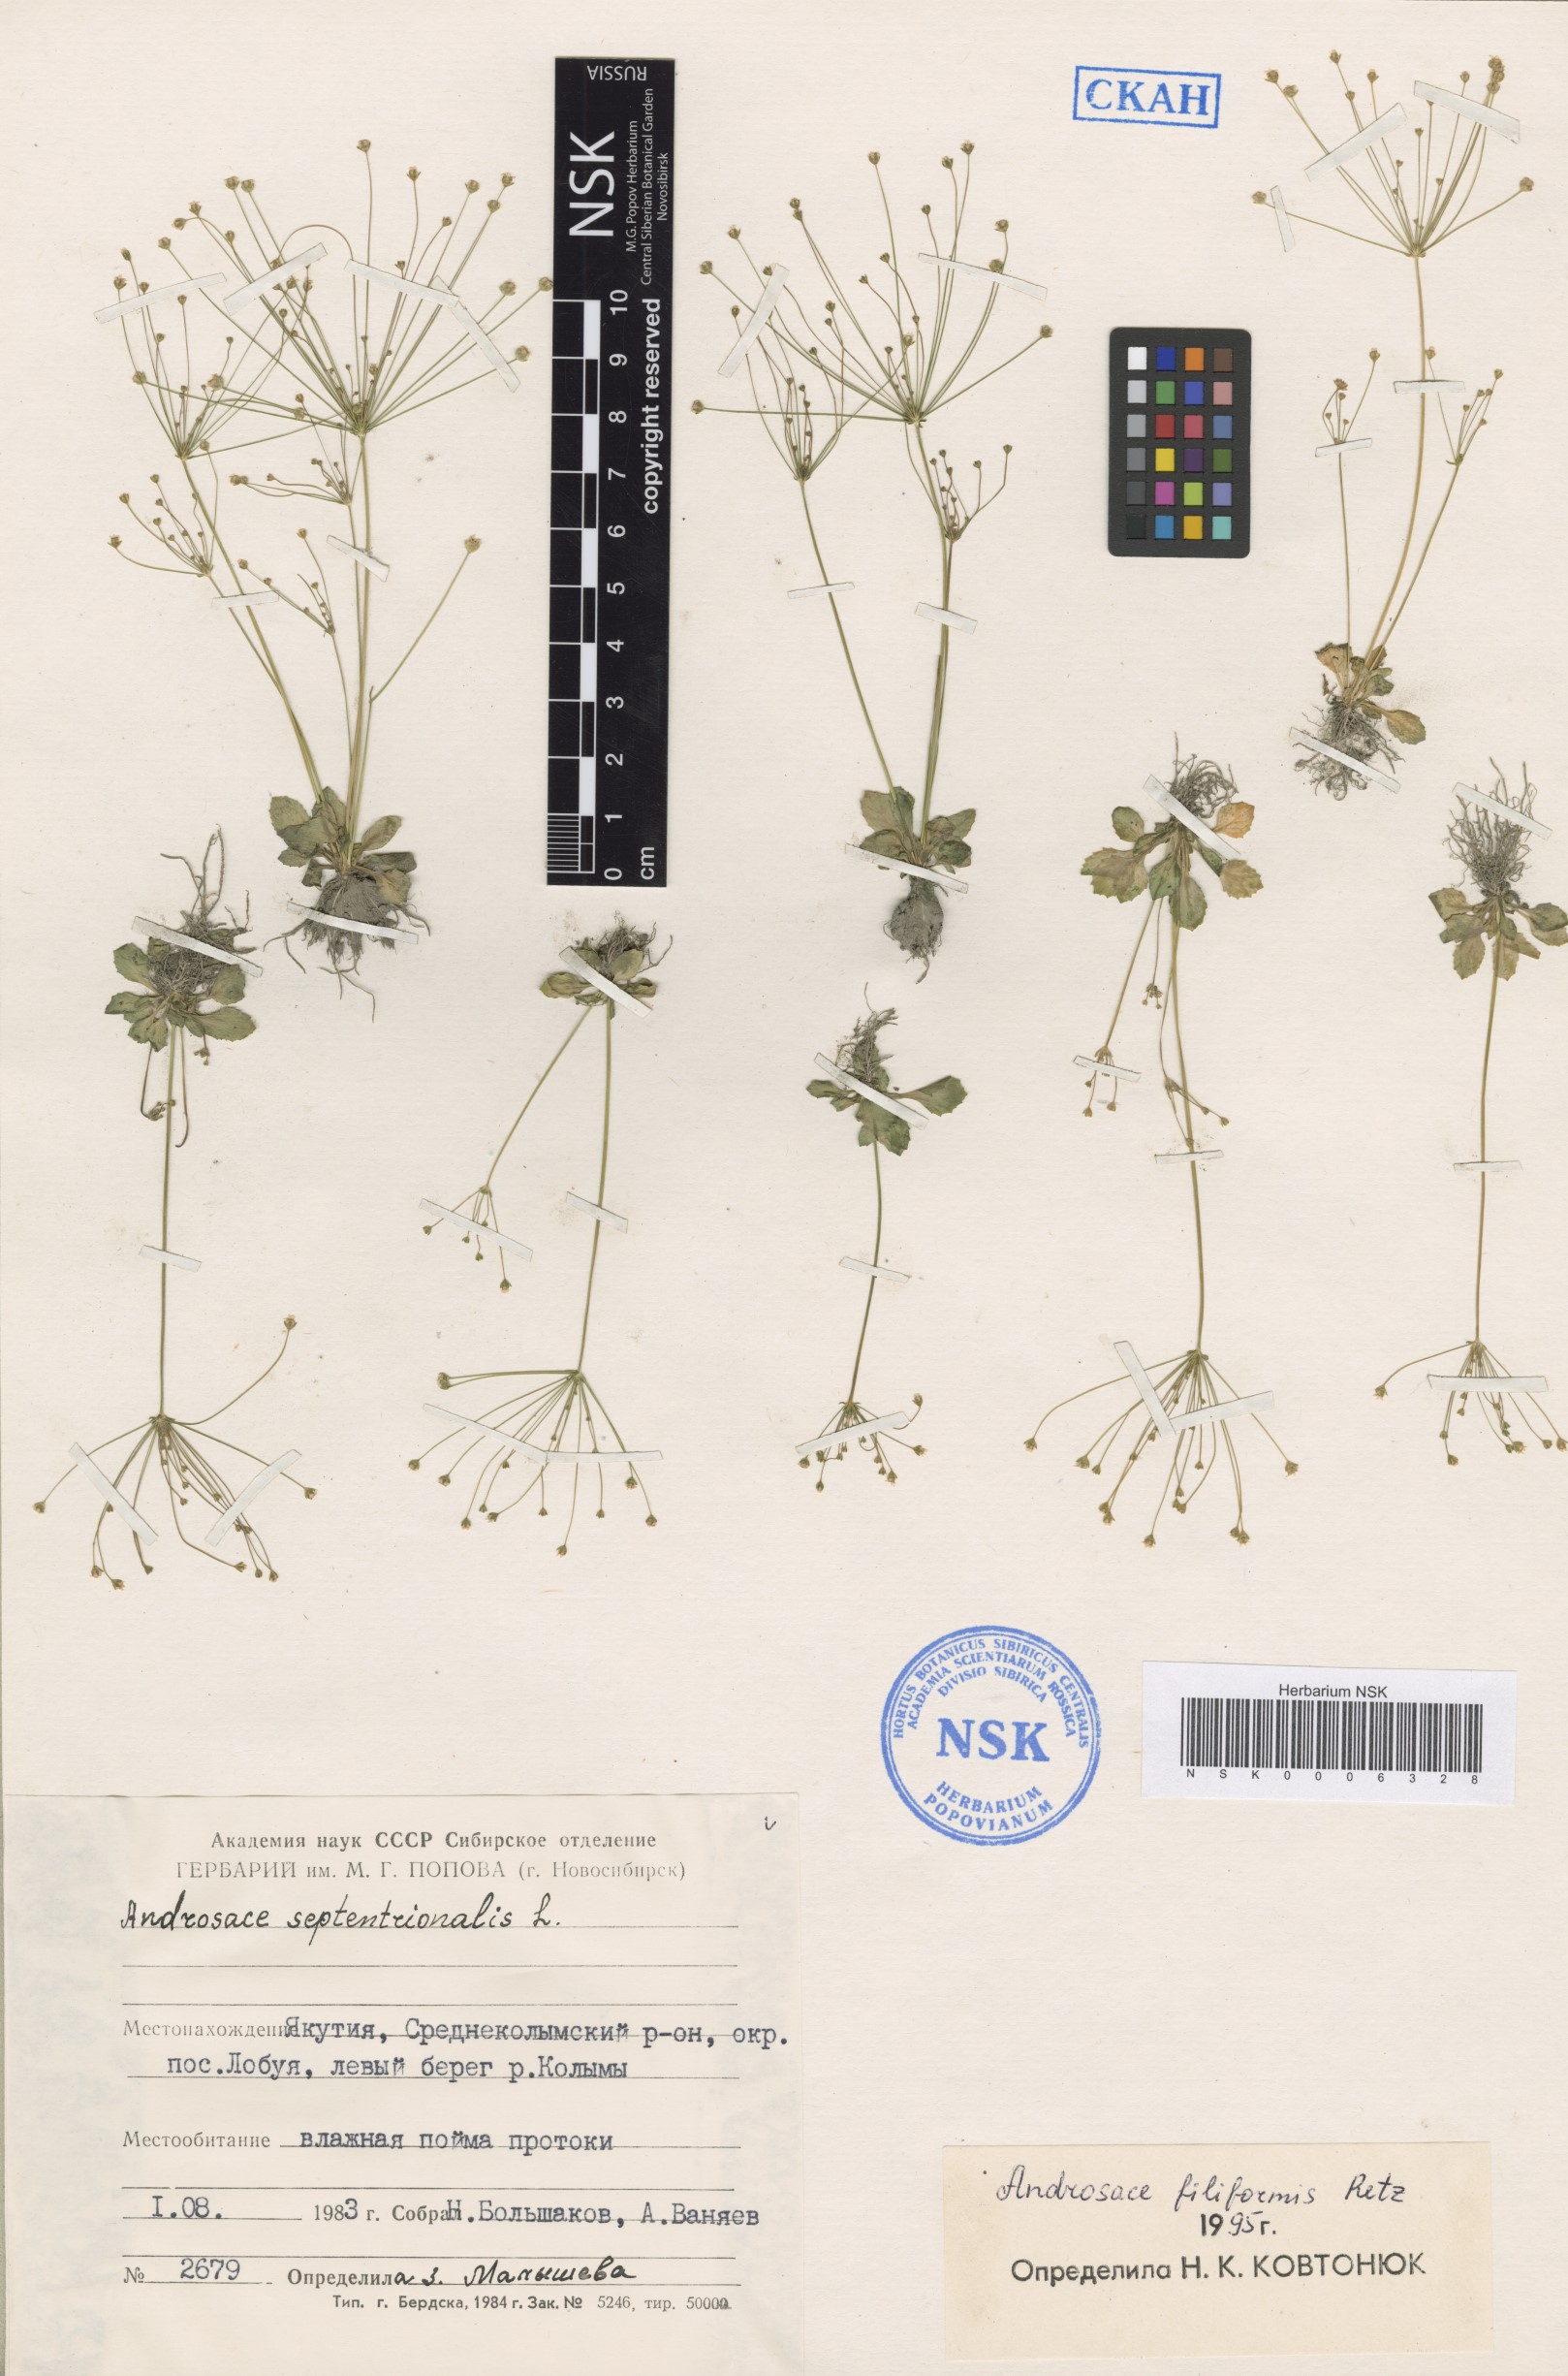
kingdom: Plantae
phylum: Tracheophyta
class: Magnoliopsida
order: Ericales
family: Primulaceae
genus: Androsace
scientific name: Androsace filiformis
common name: Filiform rock jasmine
